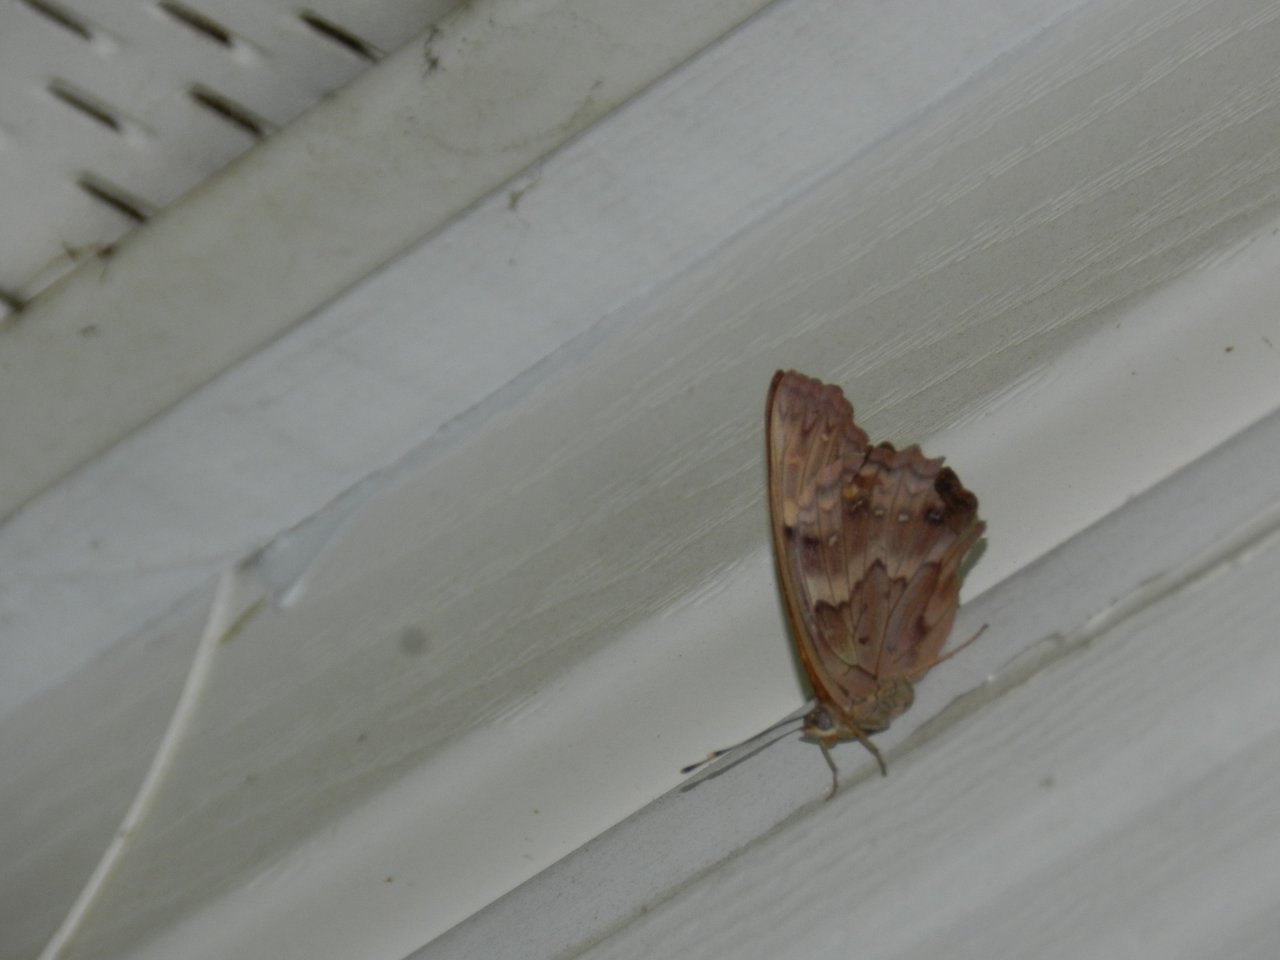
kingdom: Animalia
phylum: Arthropoda
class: Insecta
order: Lepidoptera
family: Nymphalidae
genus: Asterocampa
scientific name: Asterocampa clyton
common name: Tawny Emperor
